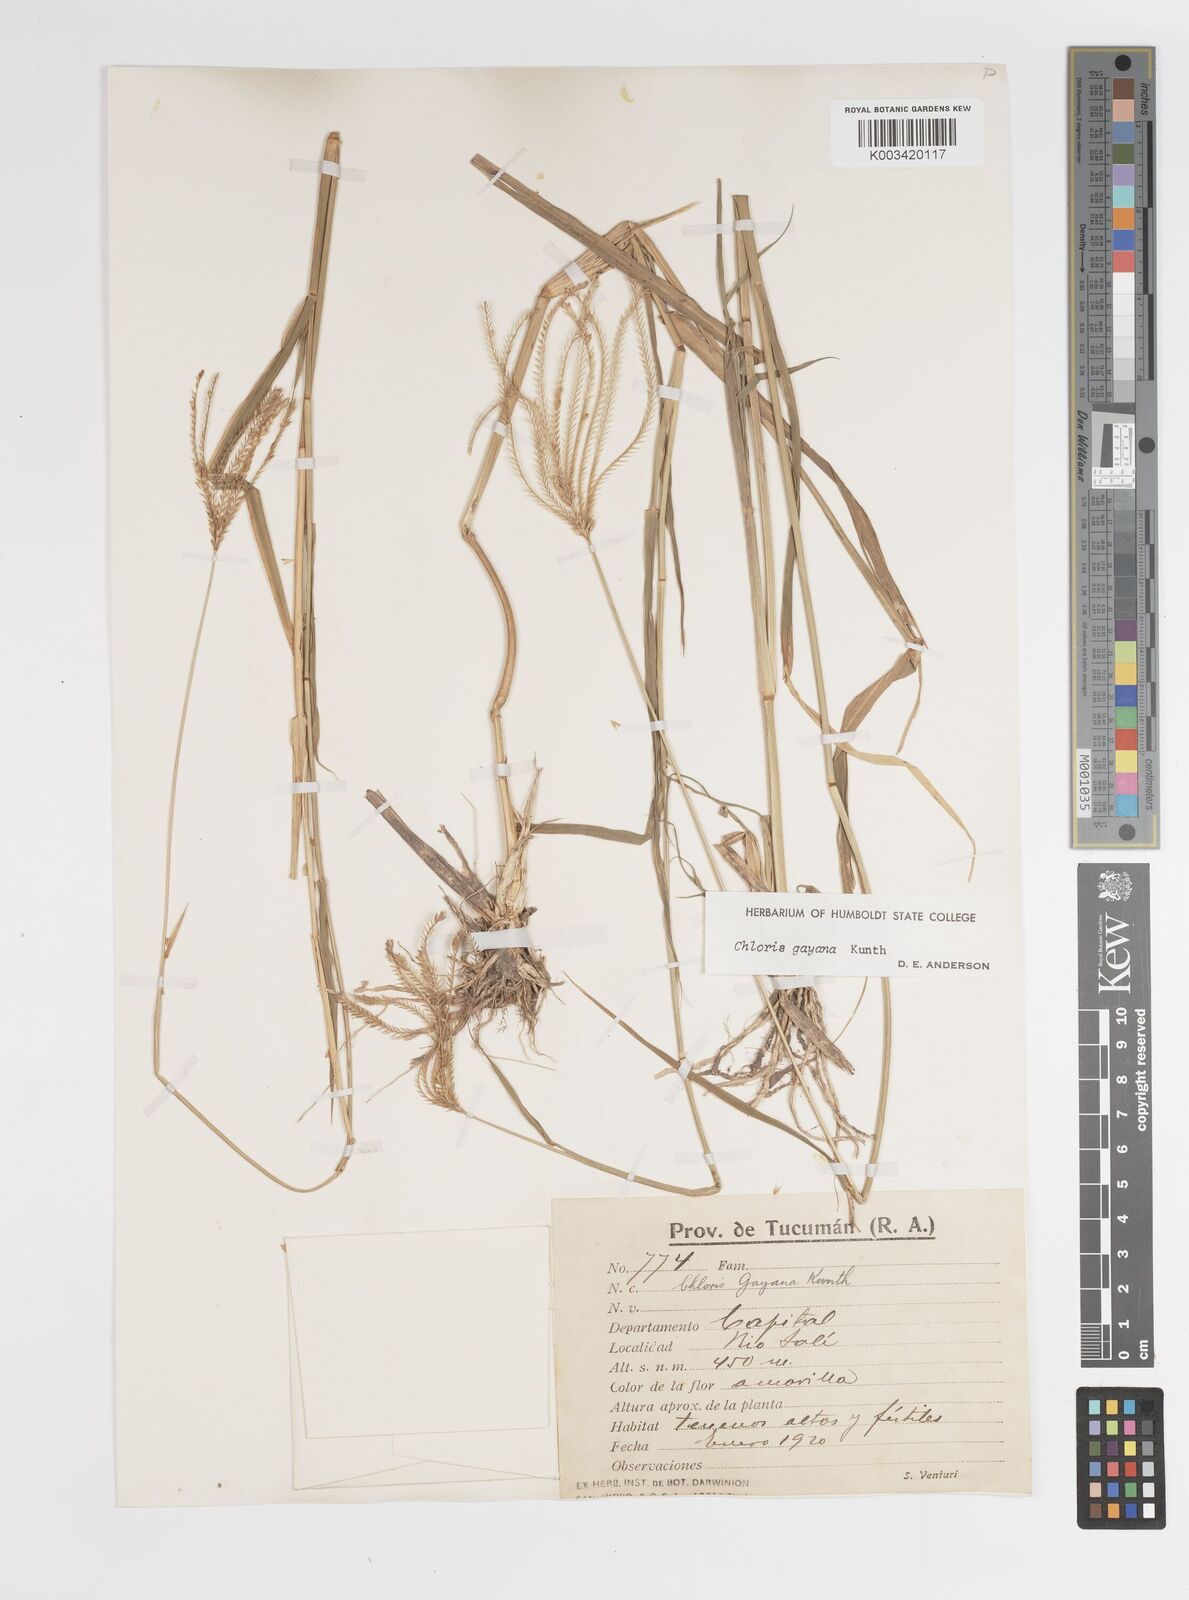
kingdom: Plantae
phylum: Tracheophyta
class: Liliopsida
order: Poales
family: Poaceae
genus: Chloris
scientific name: Chloris gayana
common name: Rhodes grass
